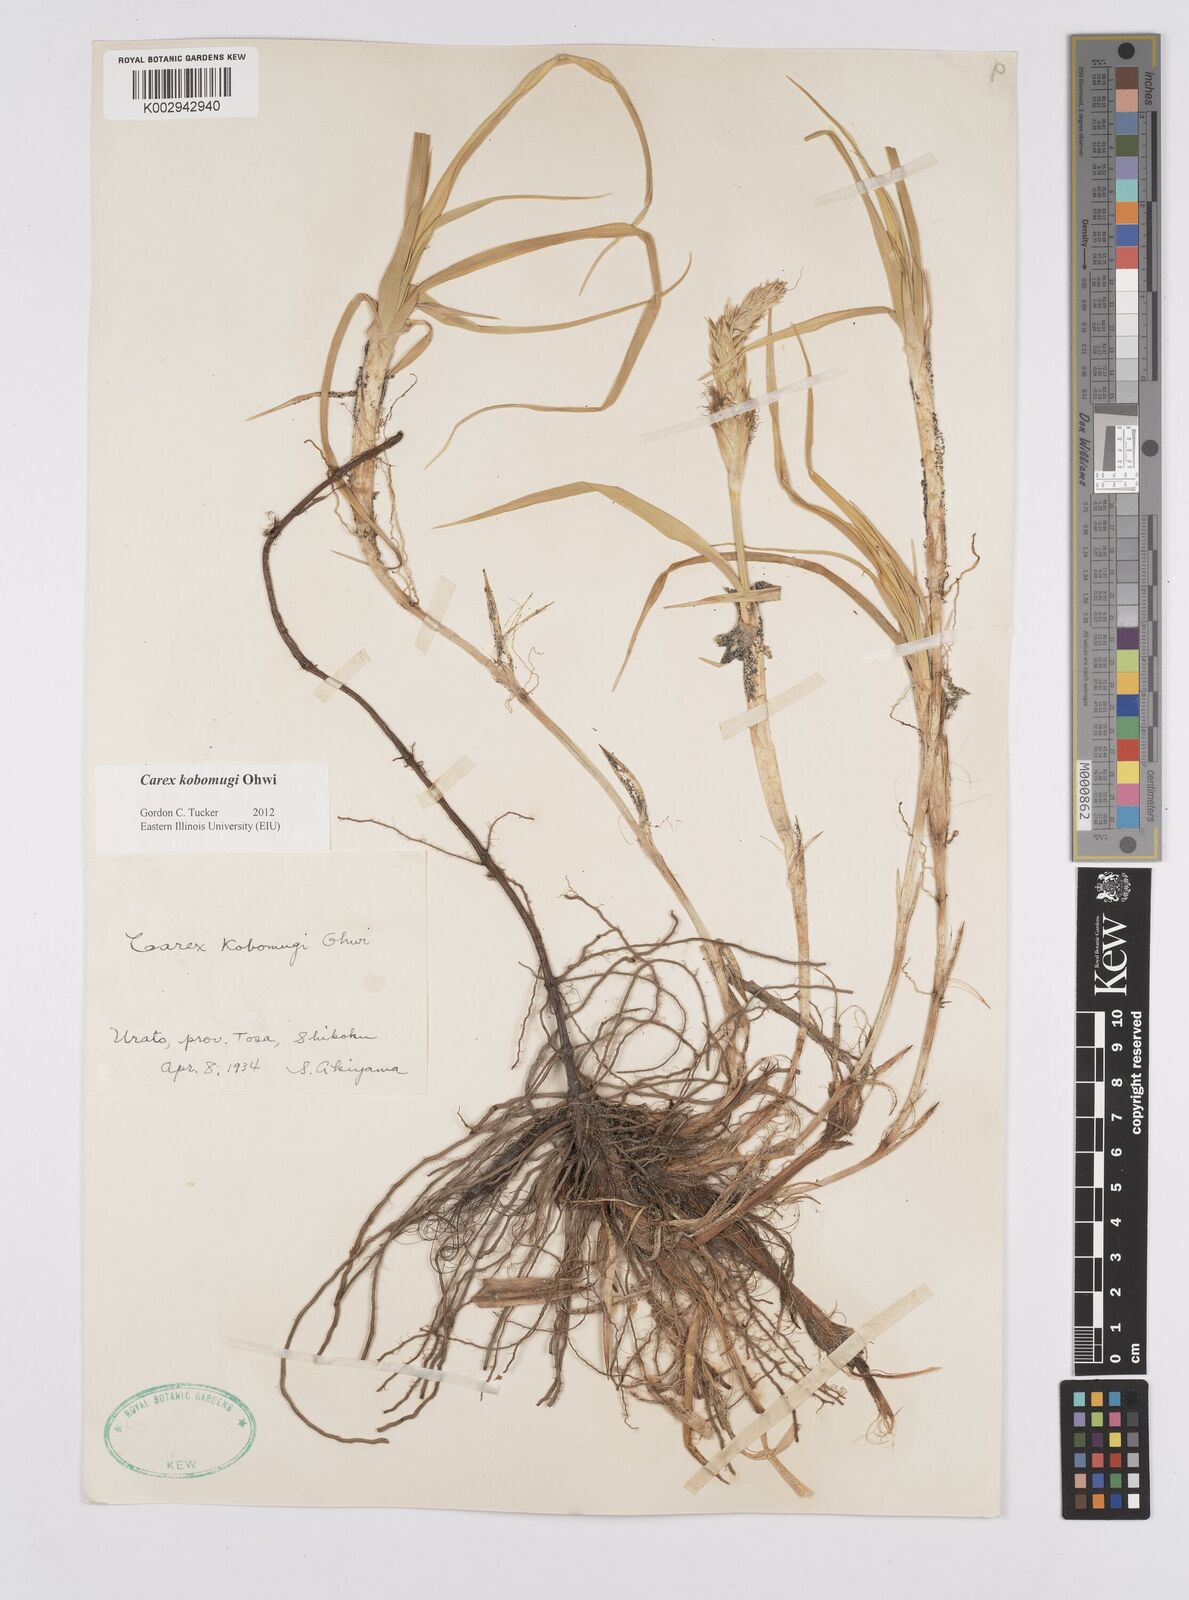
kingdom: Plantae
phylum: Tracheophyta
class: Liliopsida
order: Poales
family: Cyperaceae
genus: Carex
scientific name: Carex kobomugi
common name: Japanese sedge
